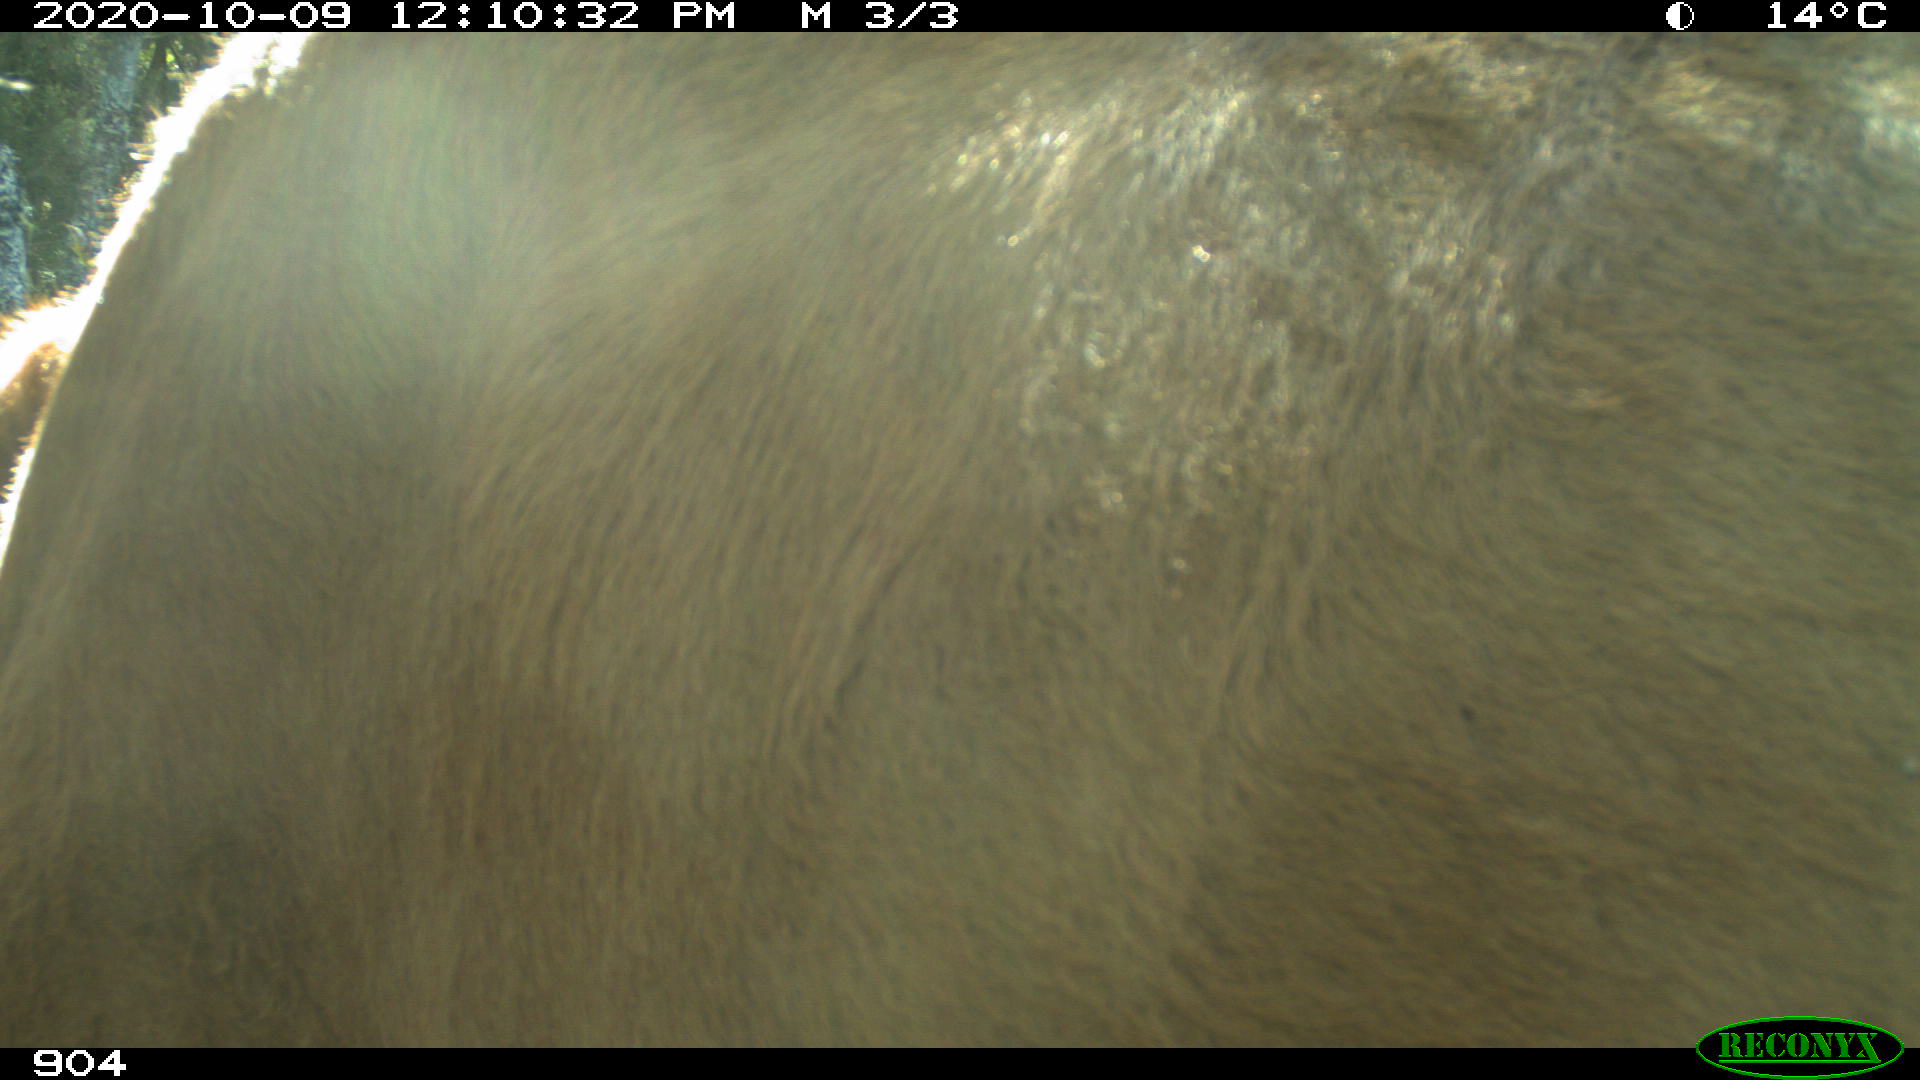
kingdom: Animalia
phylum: Chordata
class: Mammalia
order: Artiodactyla
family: Bovidae
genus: Bos
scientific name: Bos taurus
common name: Domesticated cattle
